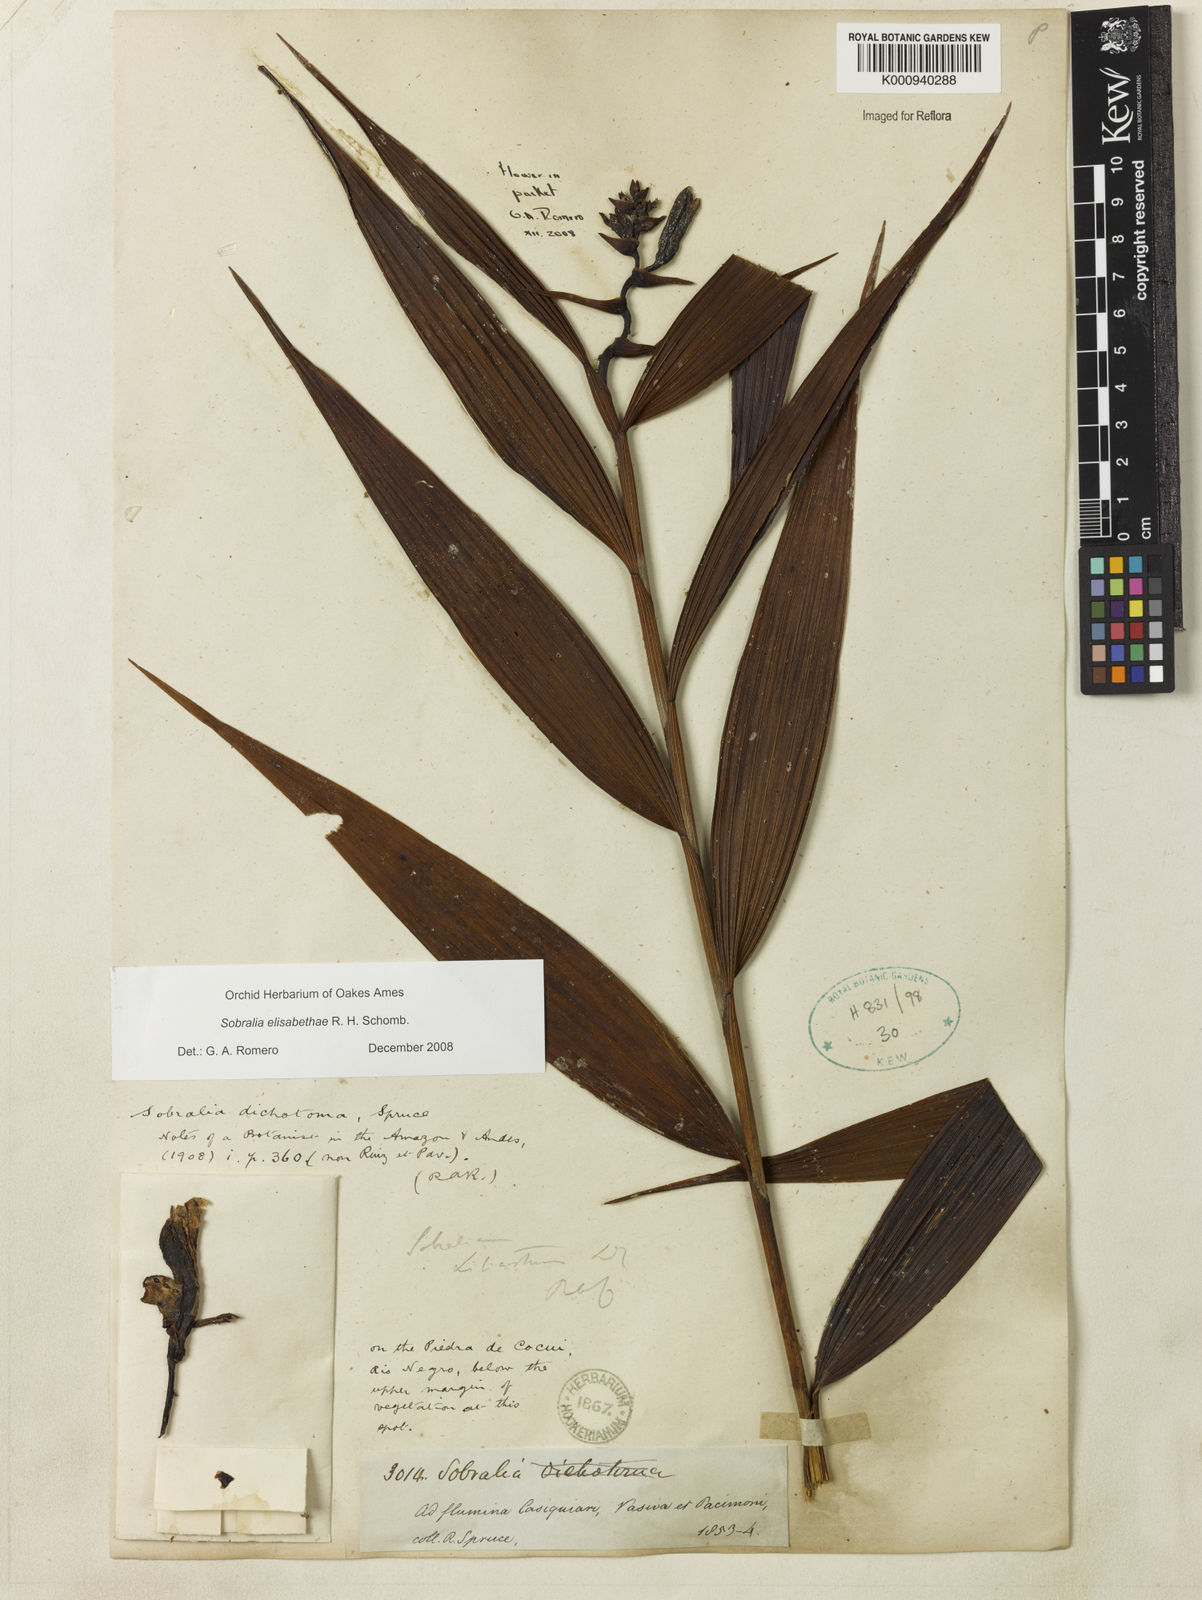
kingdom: Plantae
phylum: Tracheophyta
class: Liliopsida
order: Asparagales
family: Orchidaceae
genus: Sobralia
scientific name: Sobralia elisabethae
